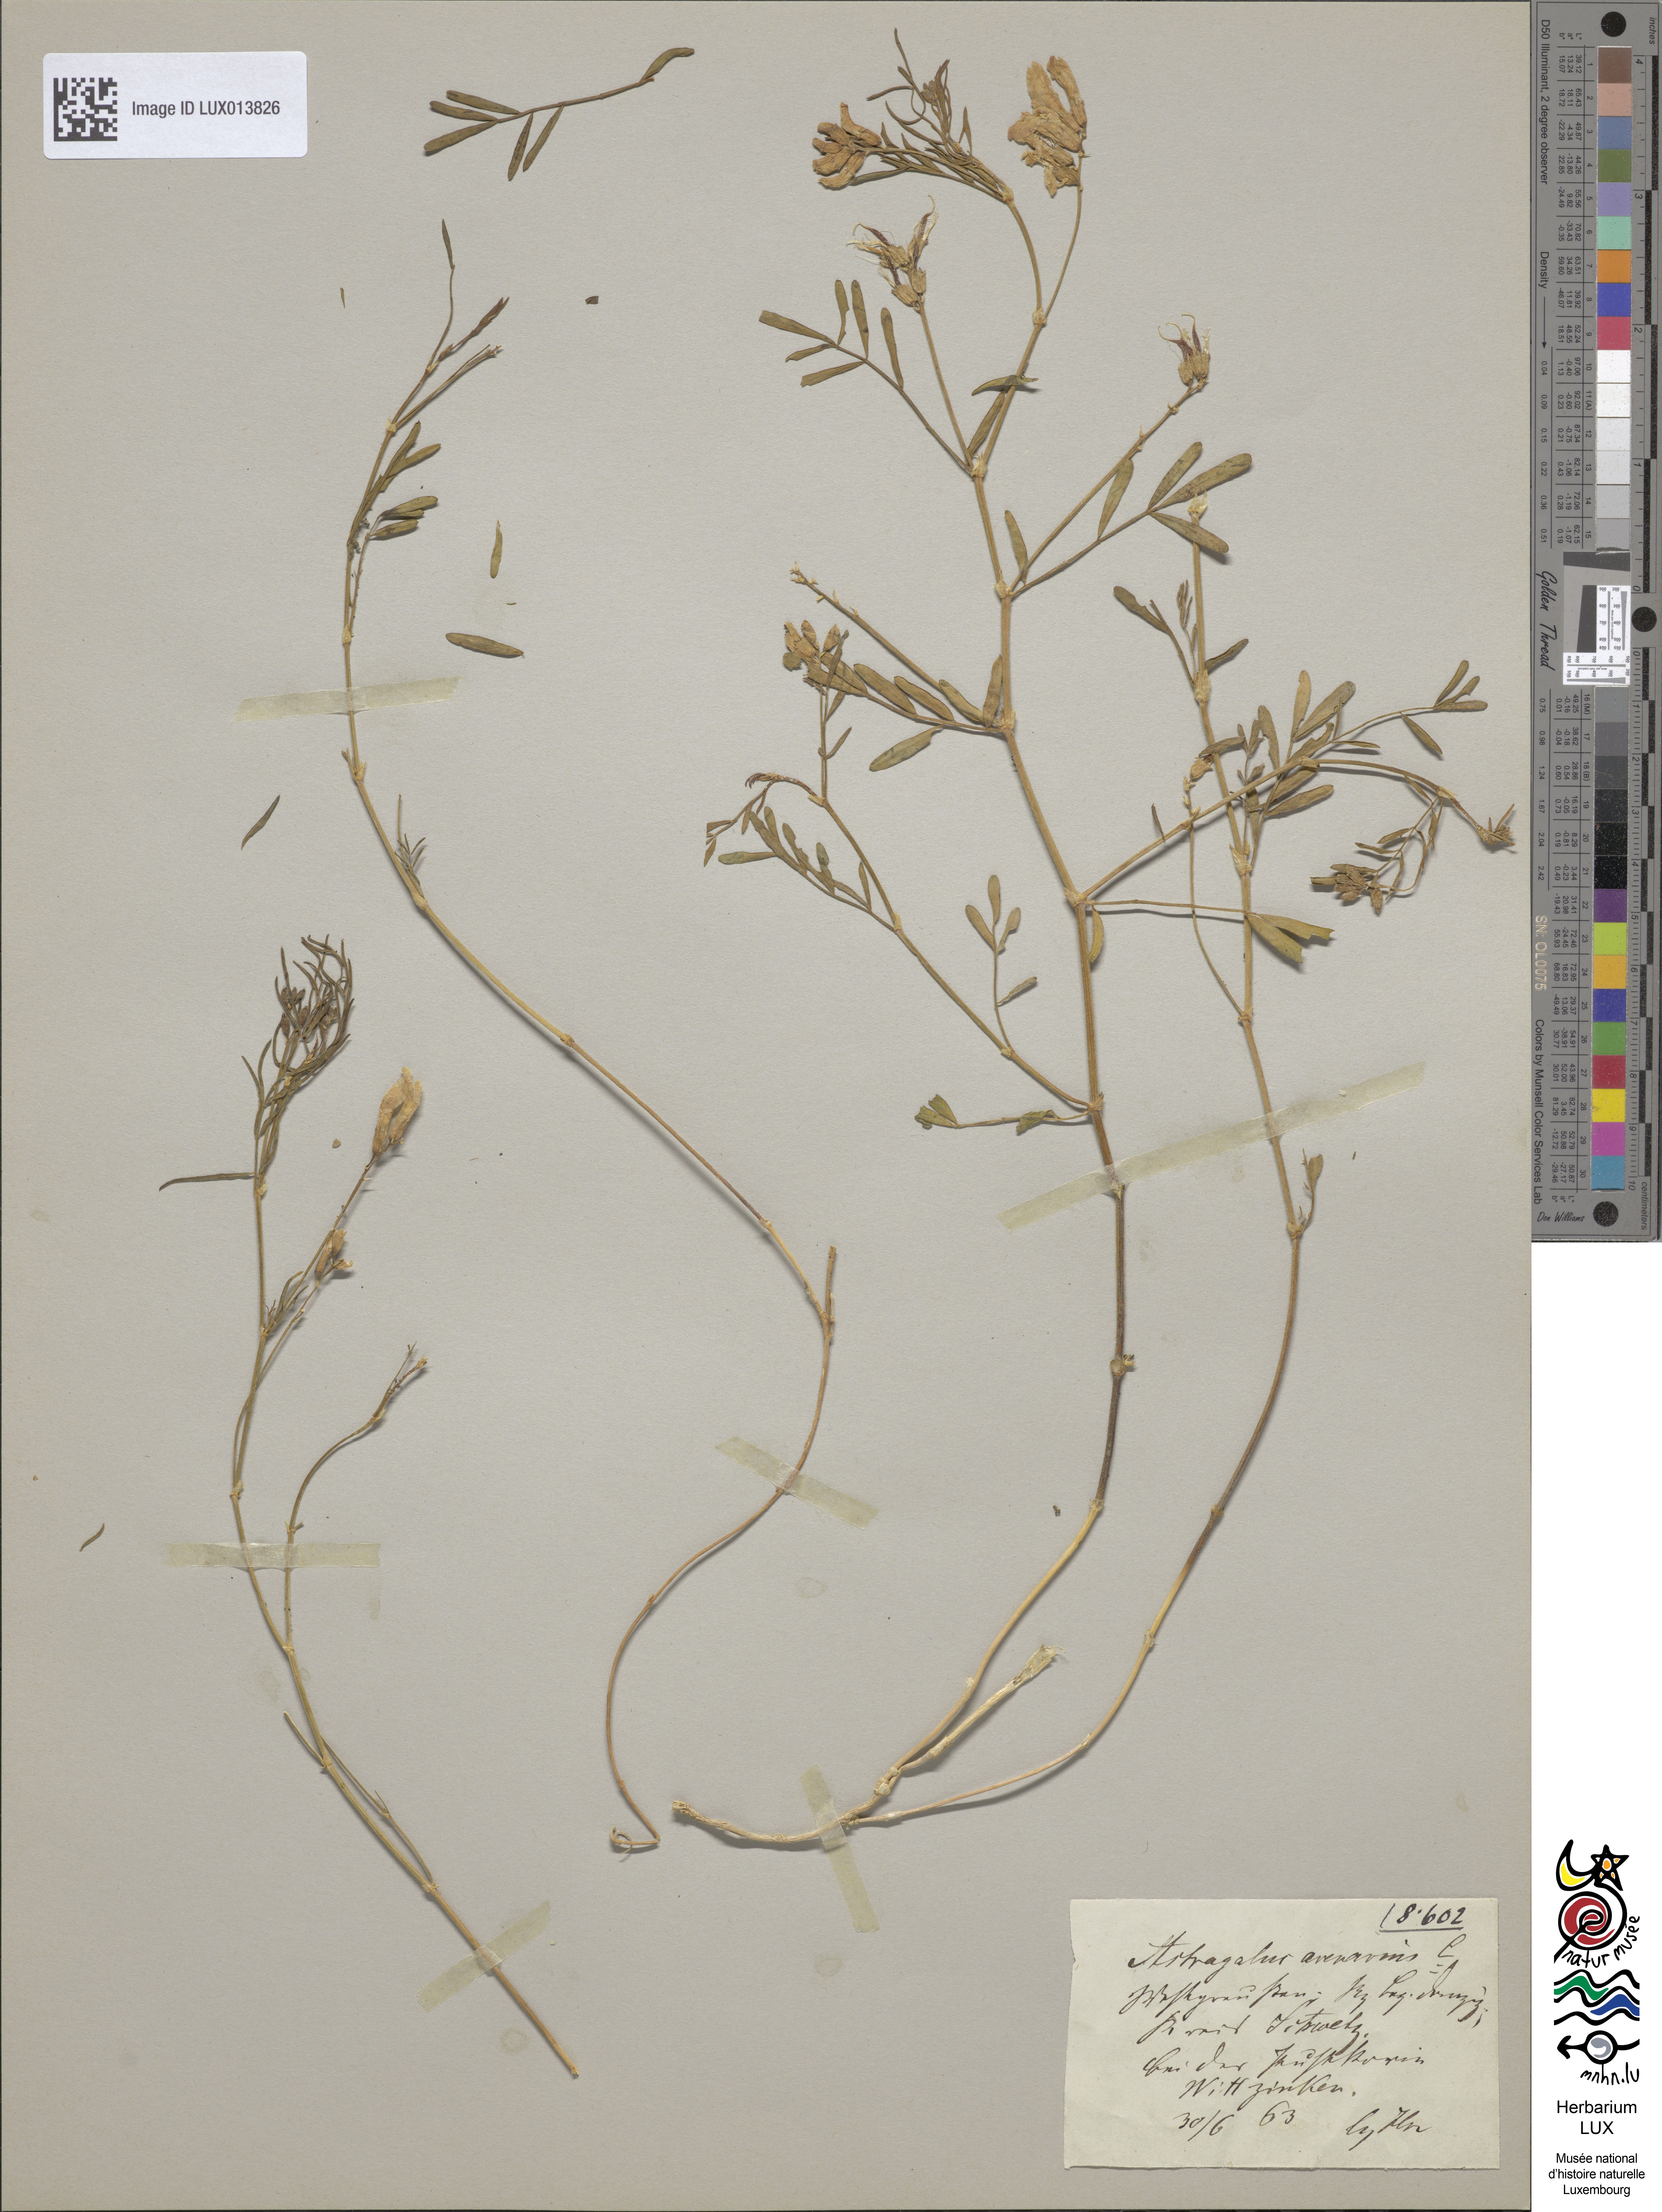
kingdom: Plantae
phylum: Tracheophyta
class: Magnoliopsida
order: Fabales
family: Fabaceae
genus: Astragalus
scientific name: Astragalus arenarius
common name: Arenarious milk-vetch
